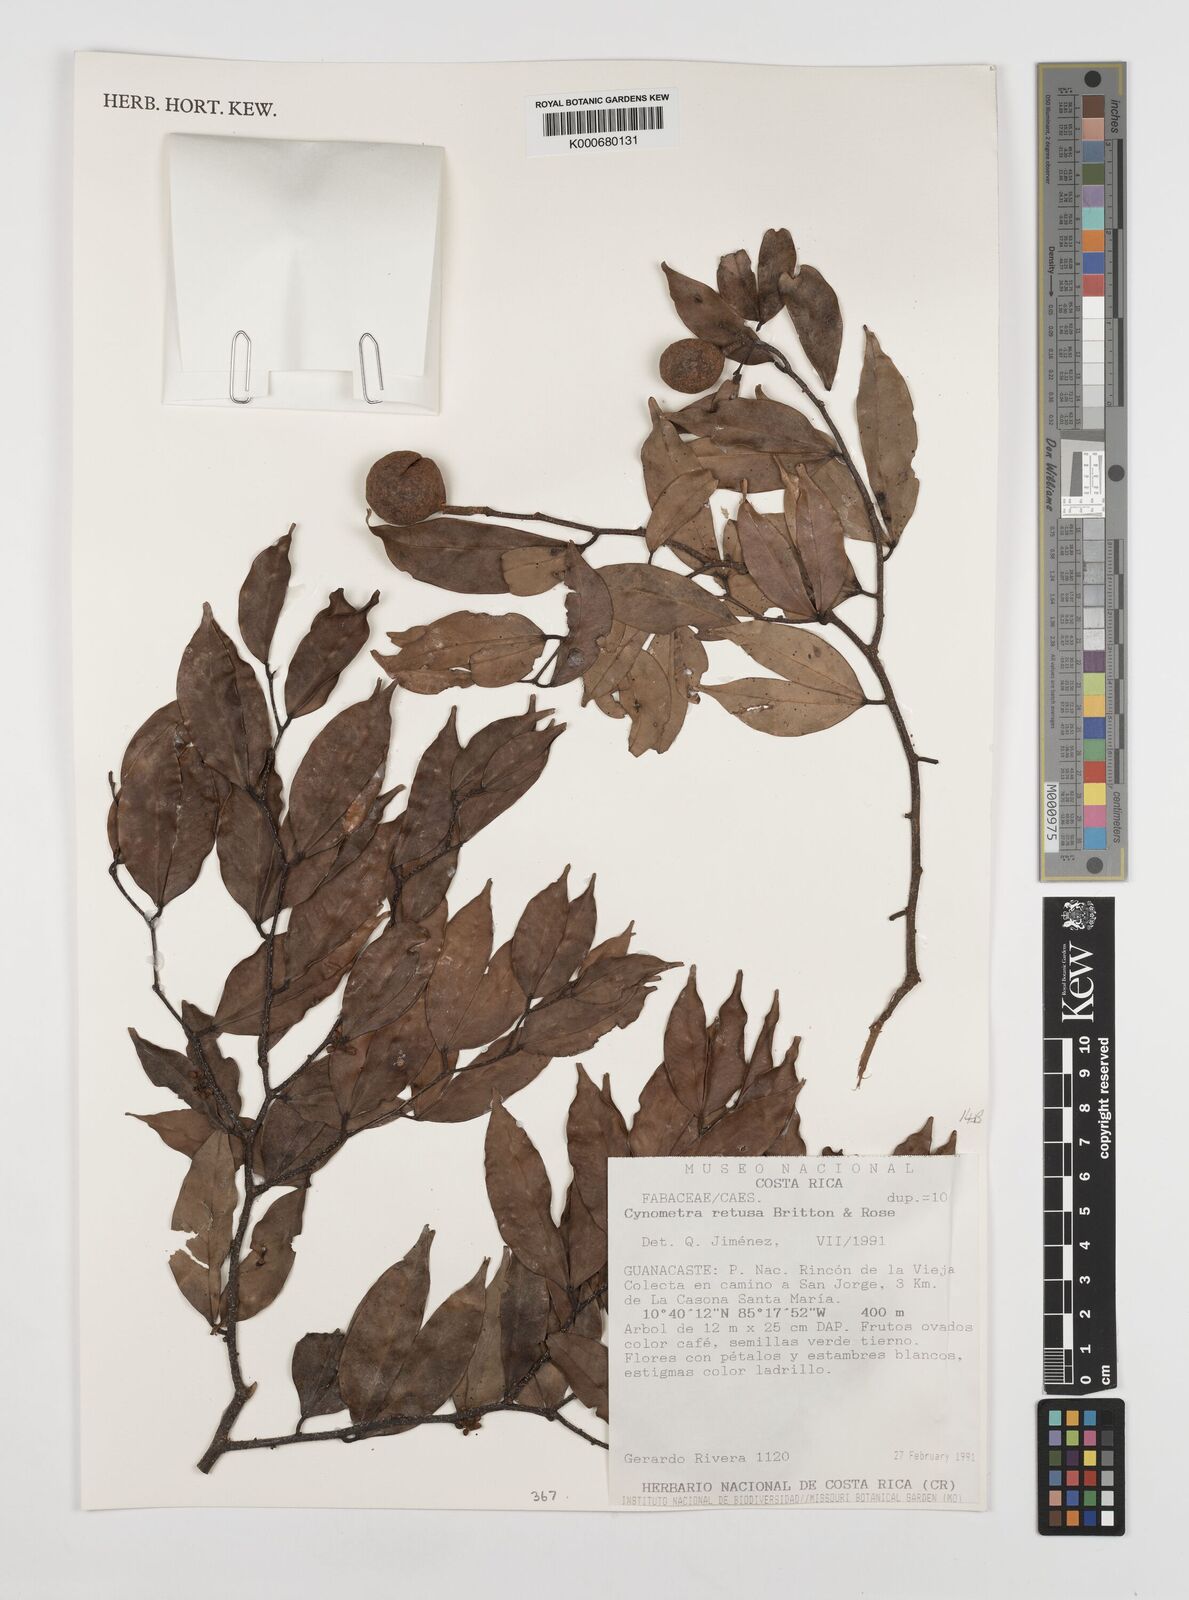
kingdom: Plantae
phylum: Tracheophyta
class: Magnoliopsida
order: Fabales
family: Fabaceae
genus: Cynometra
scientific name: Cynometra retusa
